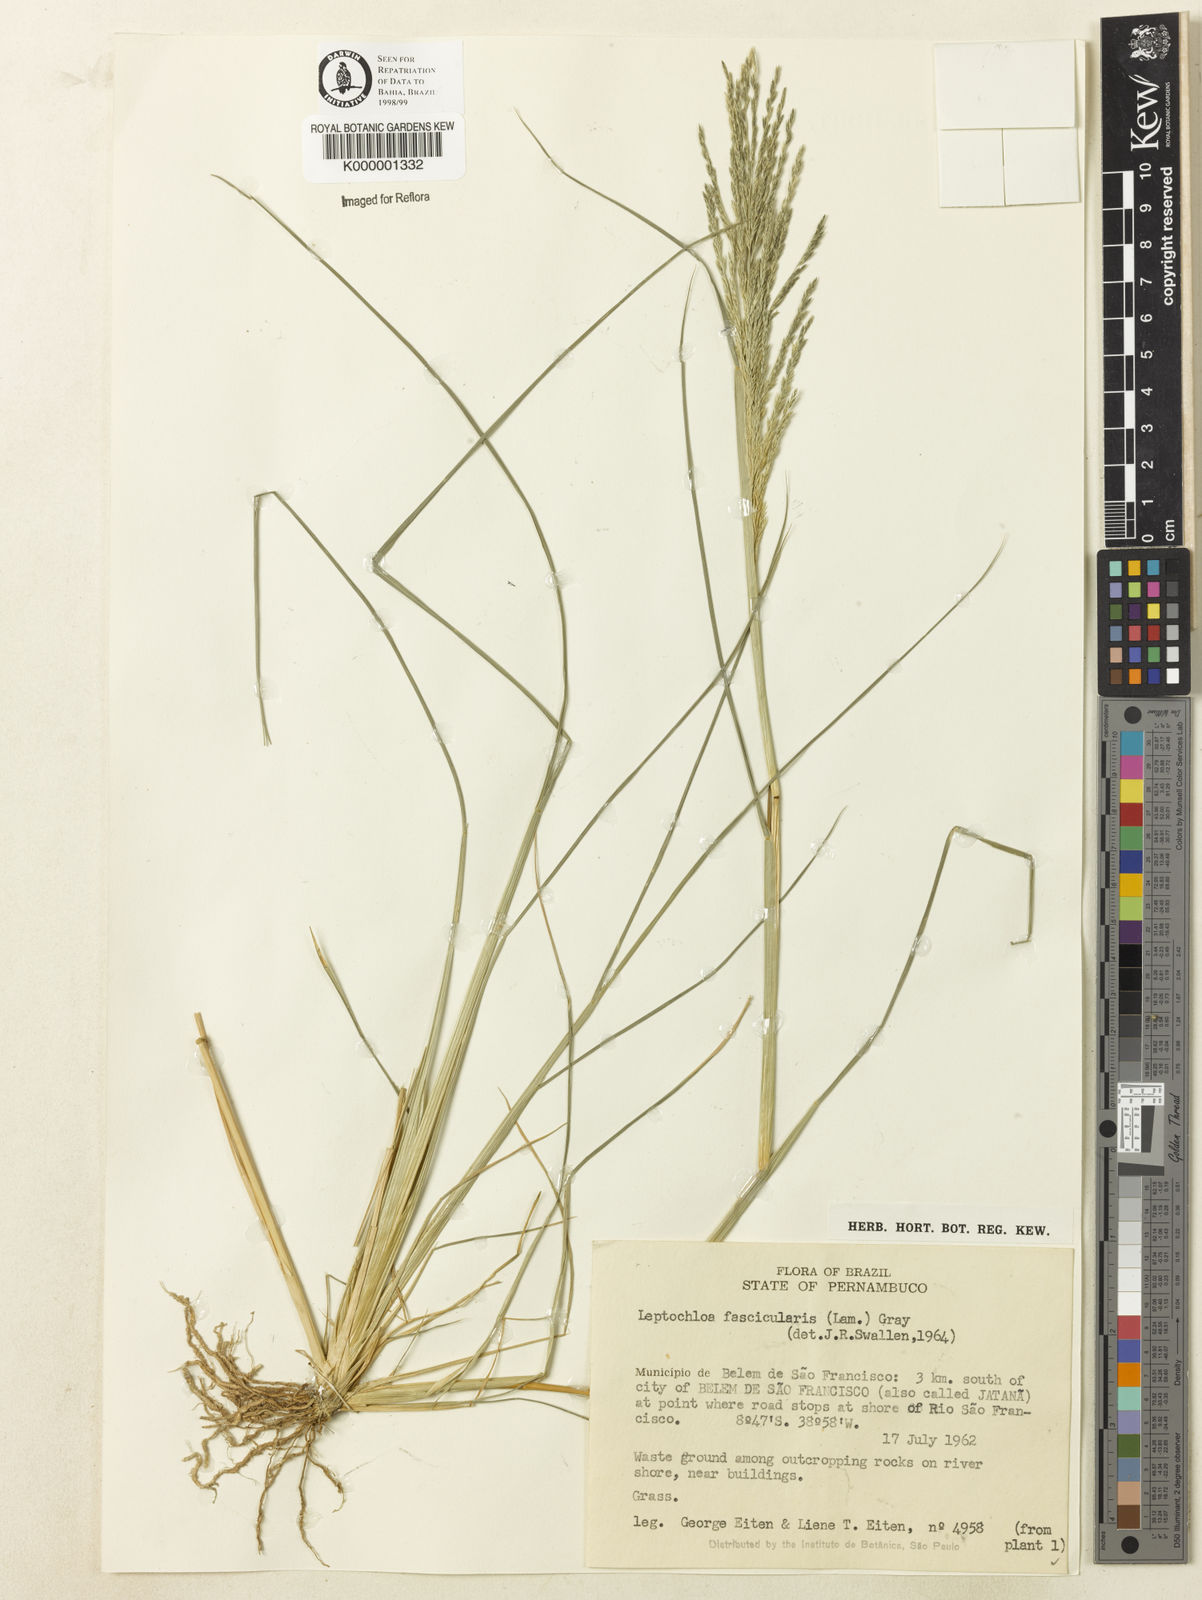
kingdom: Plantae
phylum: Tracheophyta
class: Liliopsida
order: Poales
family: Poaceae
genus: Diplachne
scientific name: Diplachne fusca
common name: Brown beetle grass
